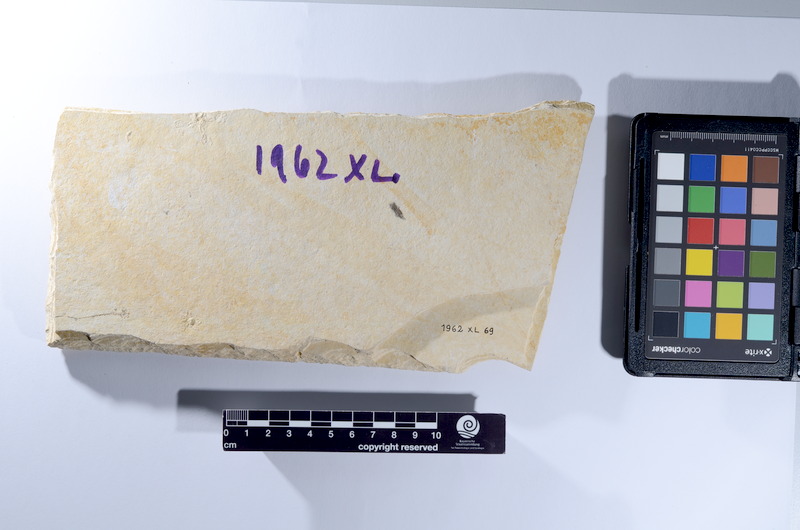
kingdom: Animalia
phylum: Chordata
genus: Thrissops
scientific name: Thrissops
